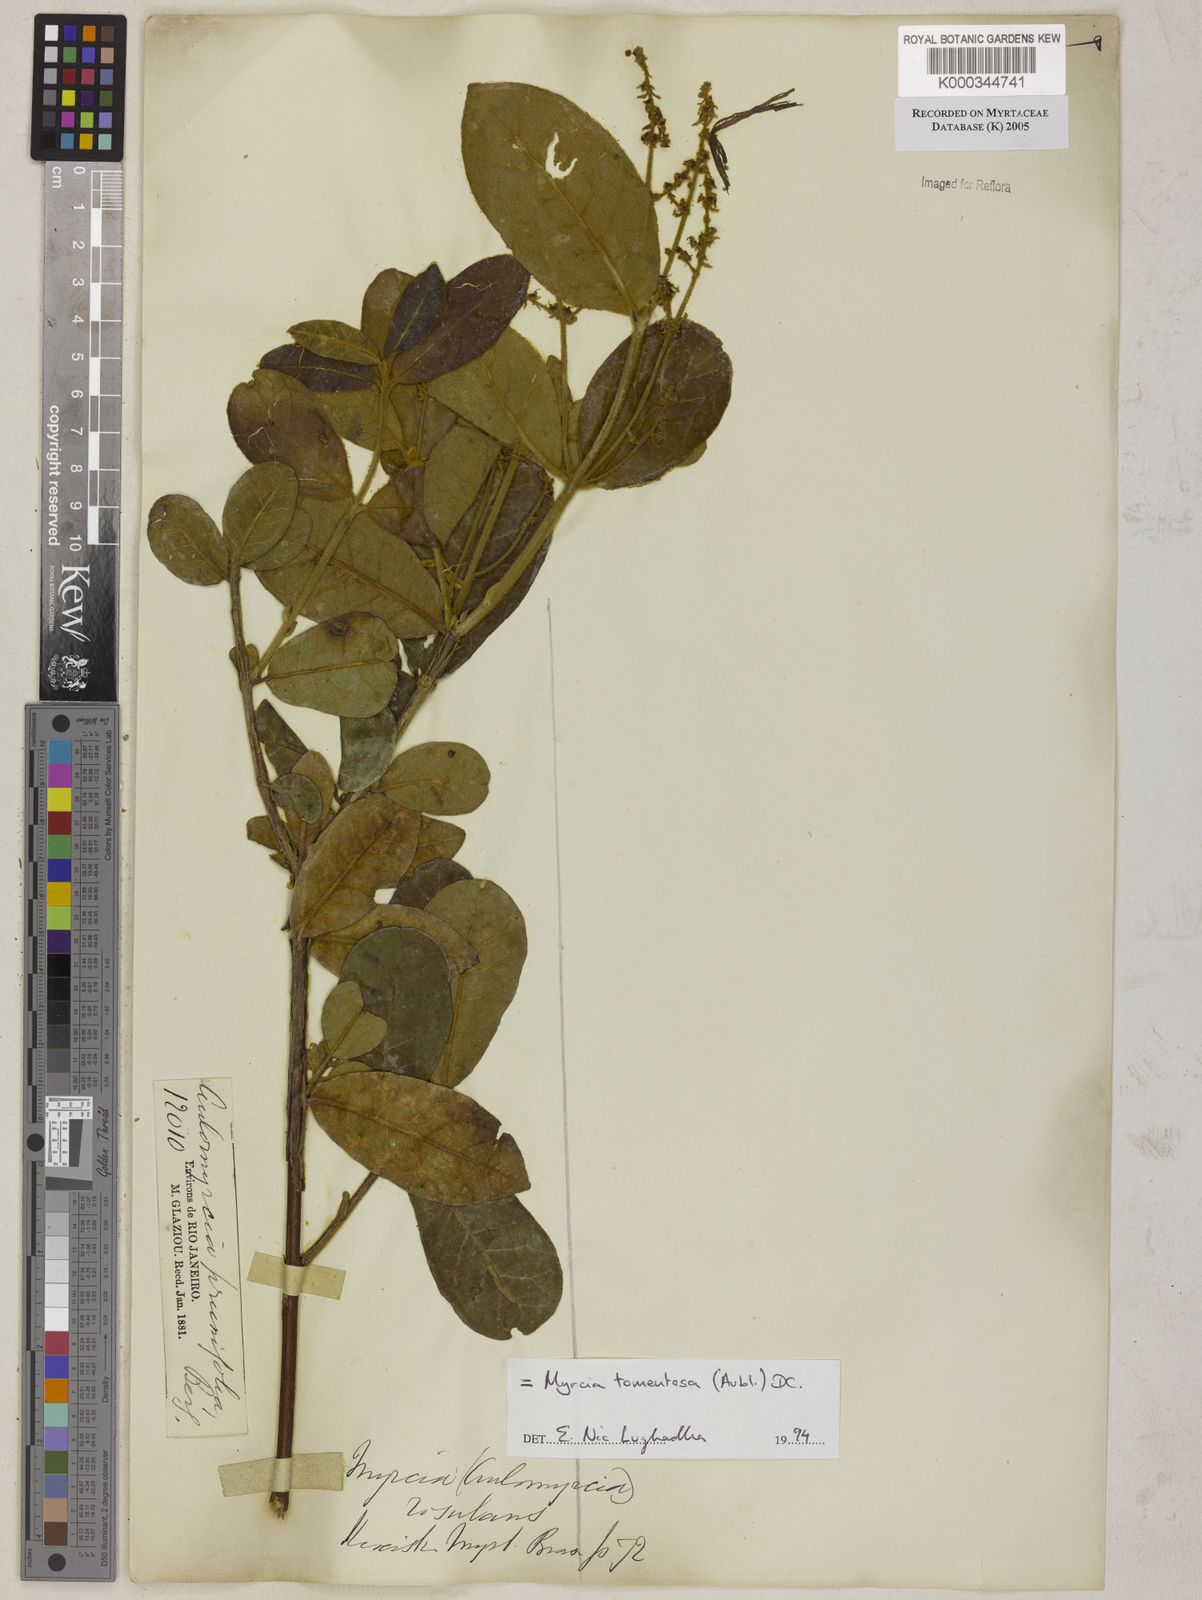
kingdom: Plantae
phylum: Tracheophyta
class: Magnoliopsida
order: Myrtales
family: Myrtaceae
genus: Myrcia
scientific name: Myrcia tomentosa
